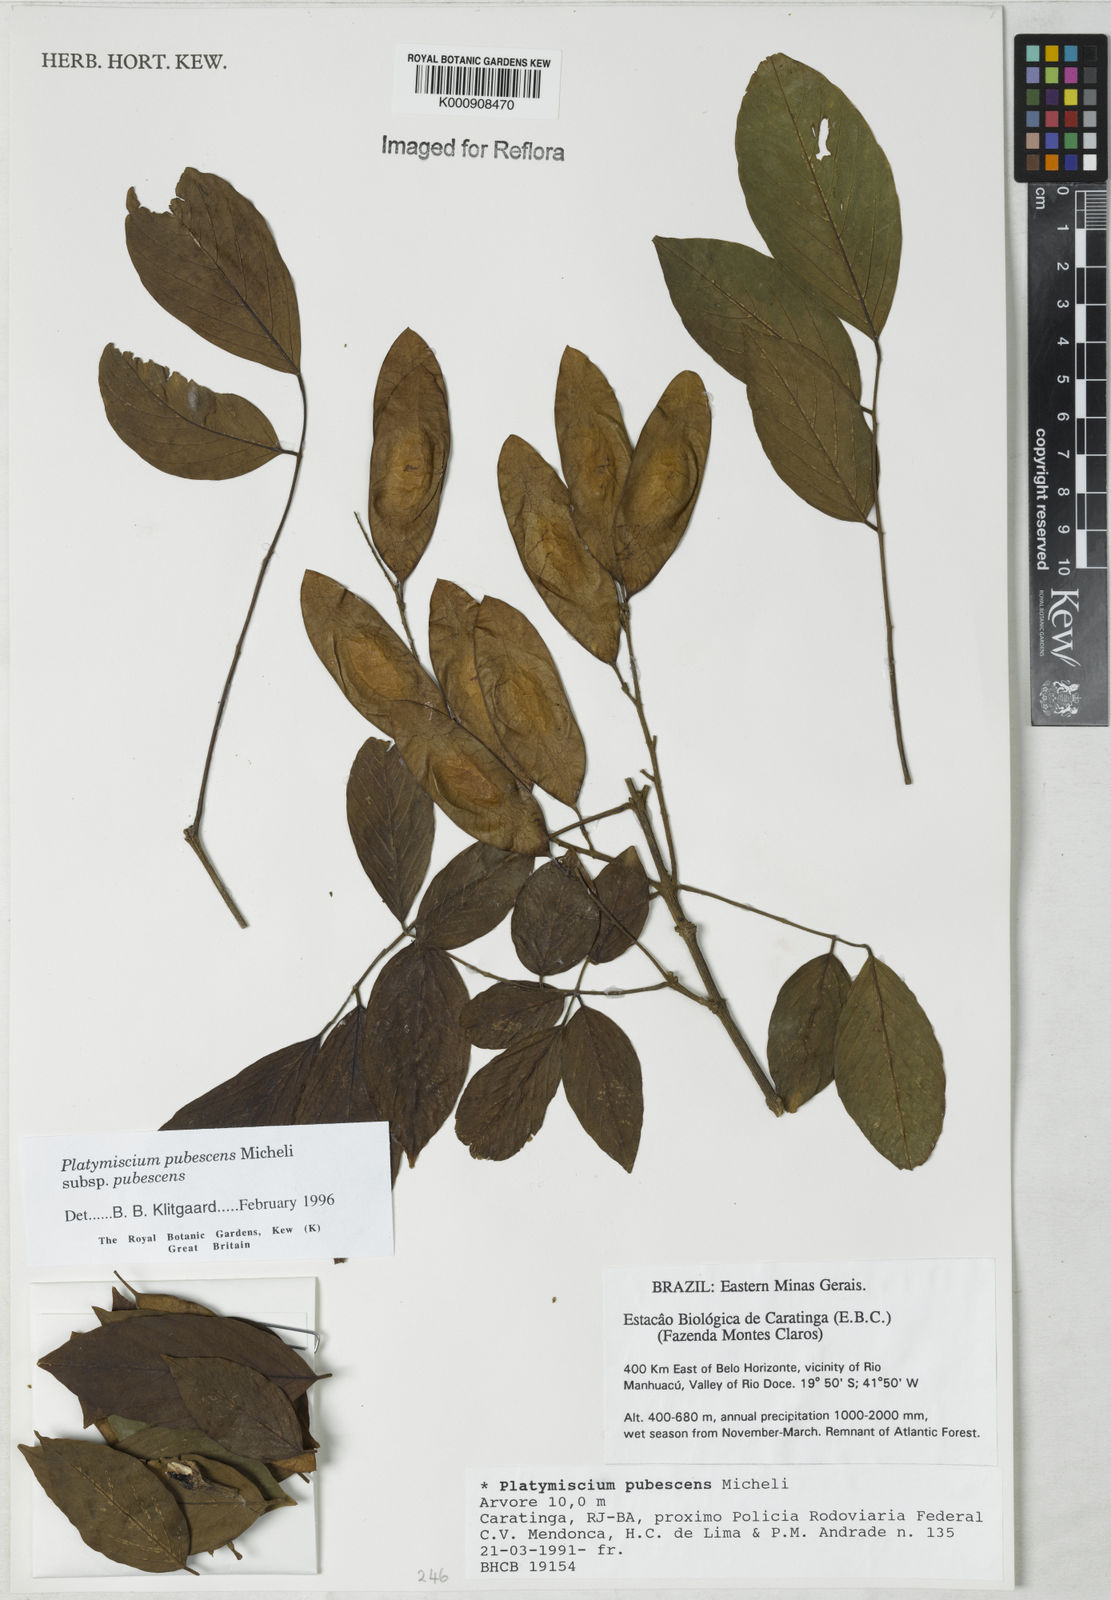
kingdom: Plantae
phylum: Tracheophyta
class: Magnoliopsida
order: Fabales
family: Fabaceae
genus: Platymiscium
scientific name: Platymiscium pubescens
